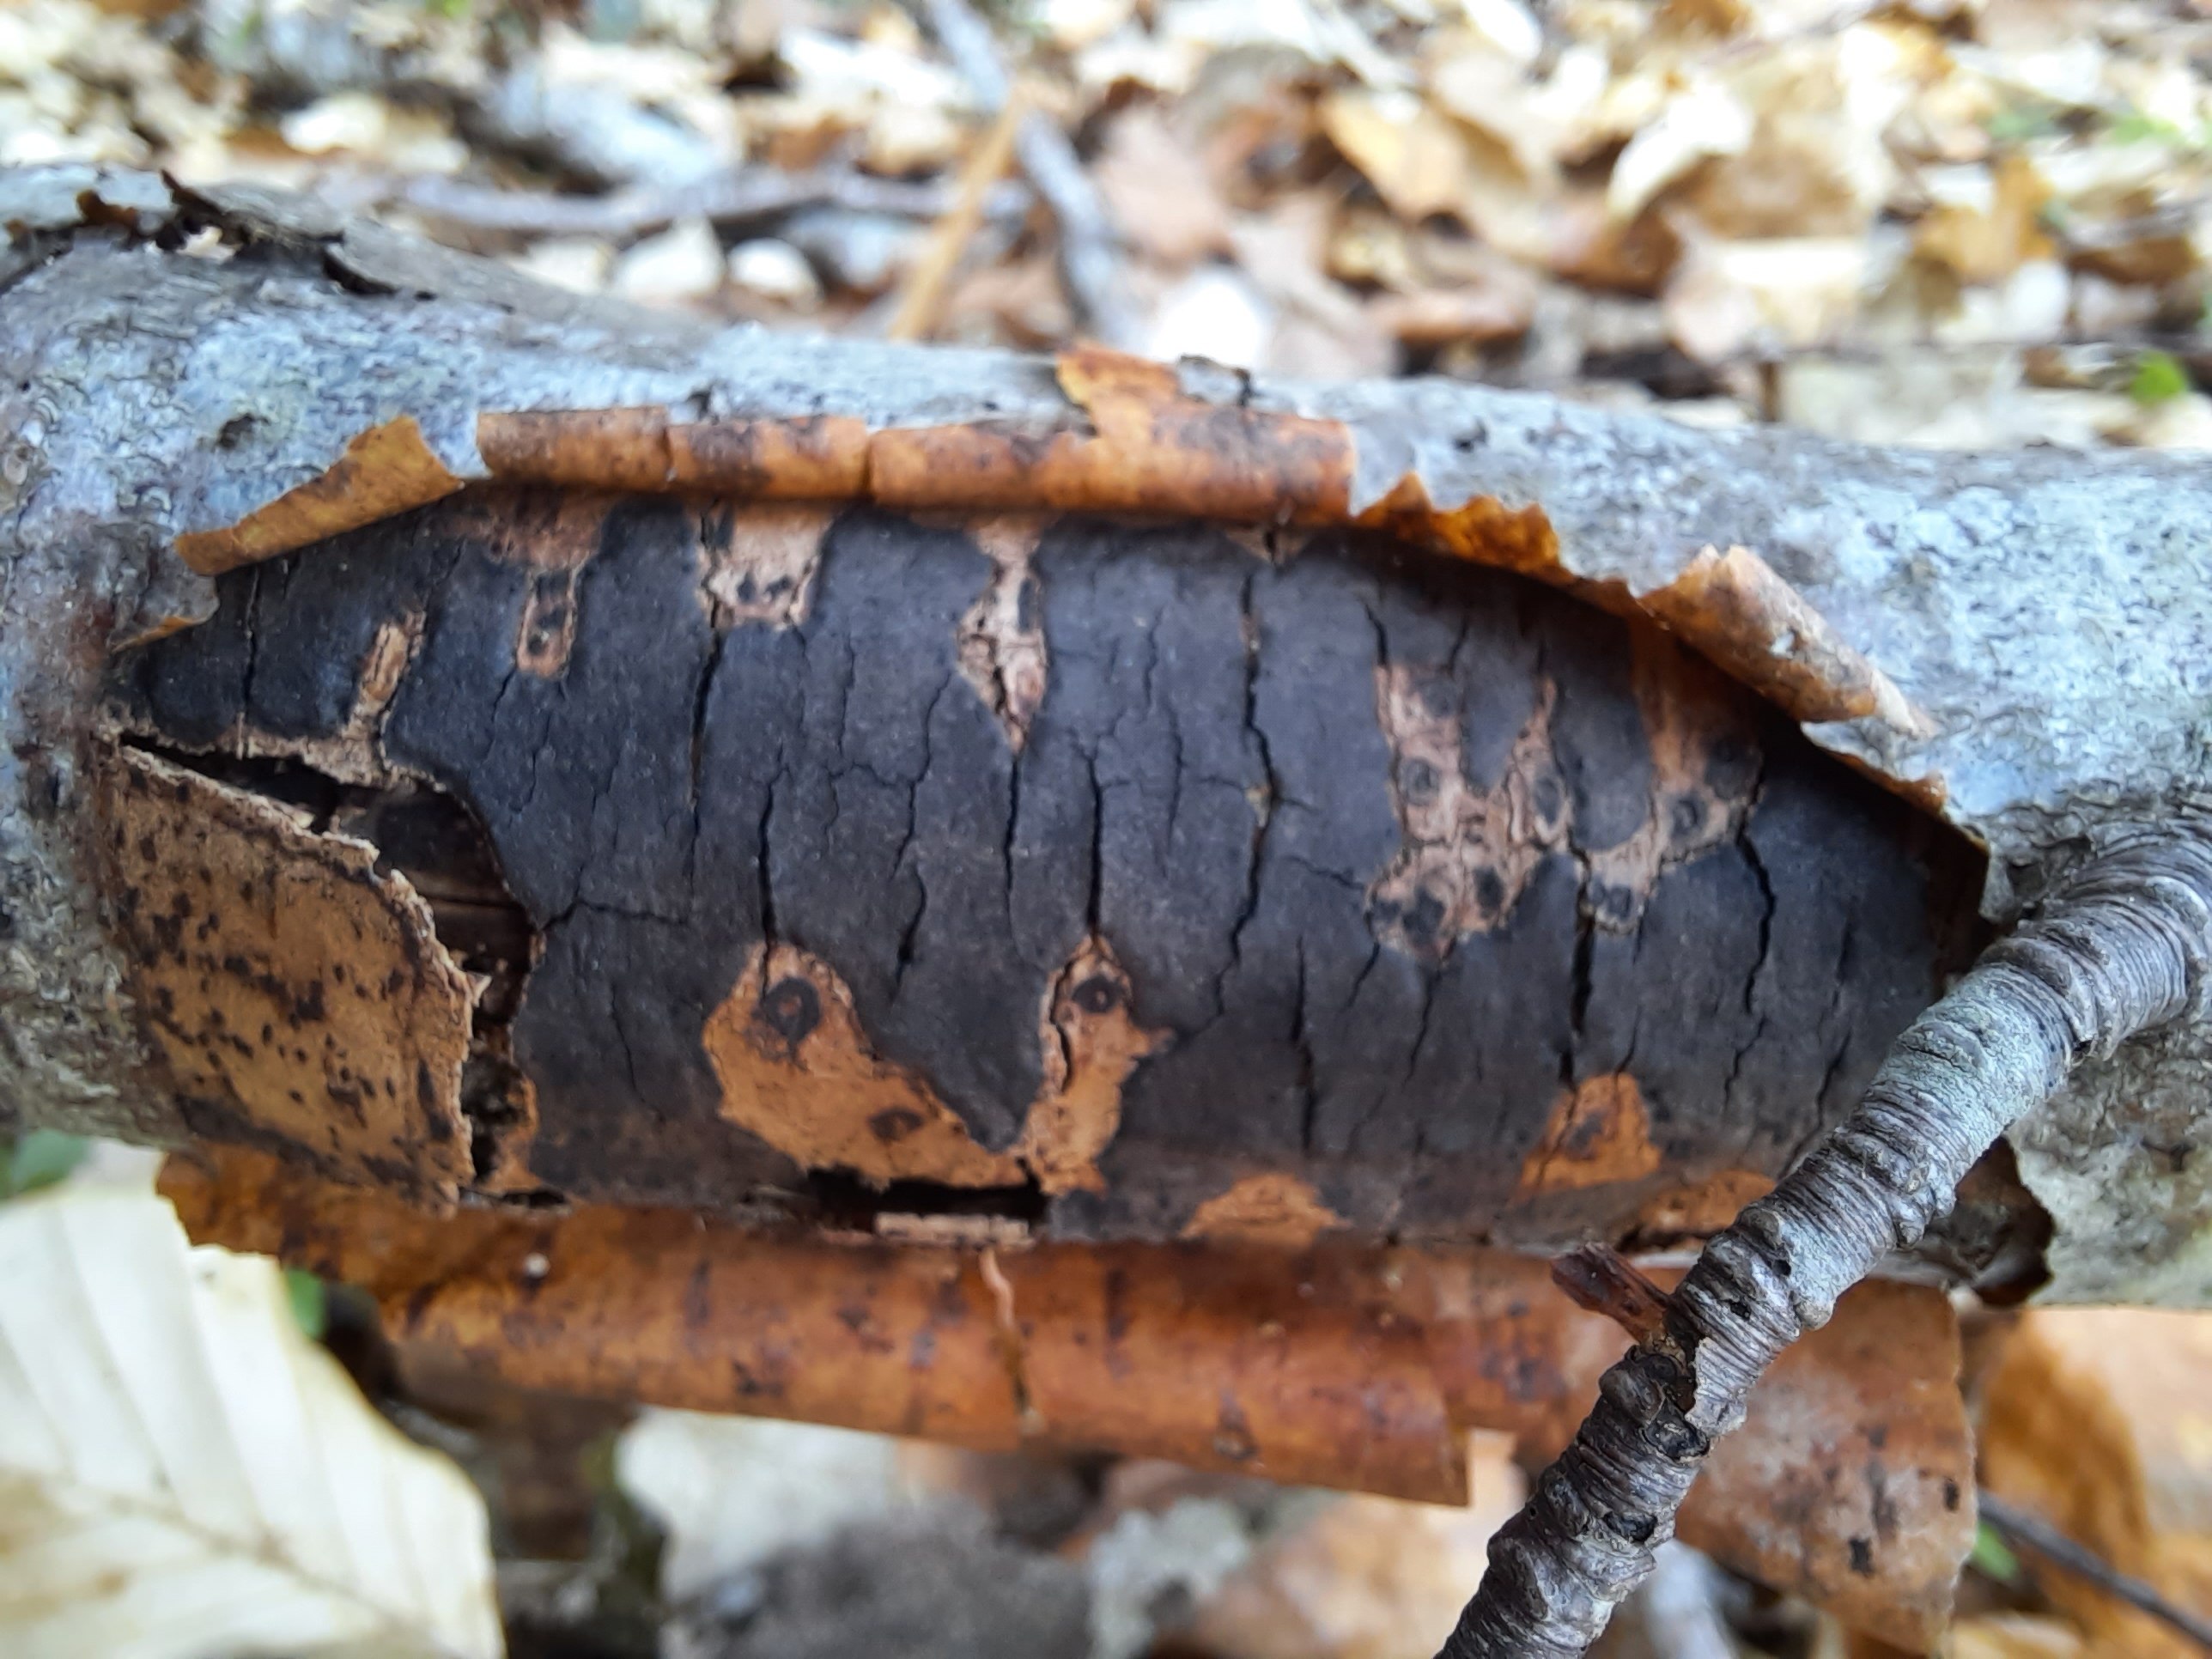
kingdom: Fungi
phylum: Ascomycota
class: Sordariomycetes
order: Xylariales
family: Diatrypaceae
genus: Diatrype
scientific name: Diatrype decorticata
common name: barksprænger-kulskorpe
